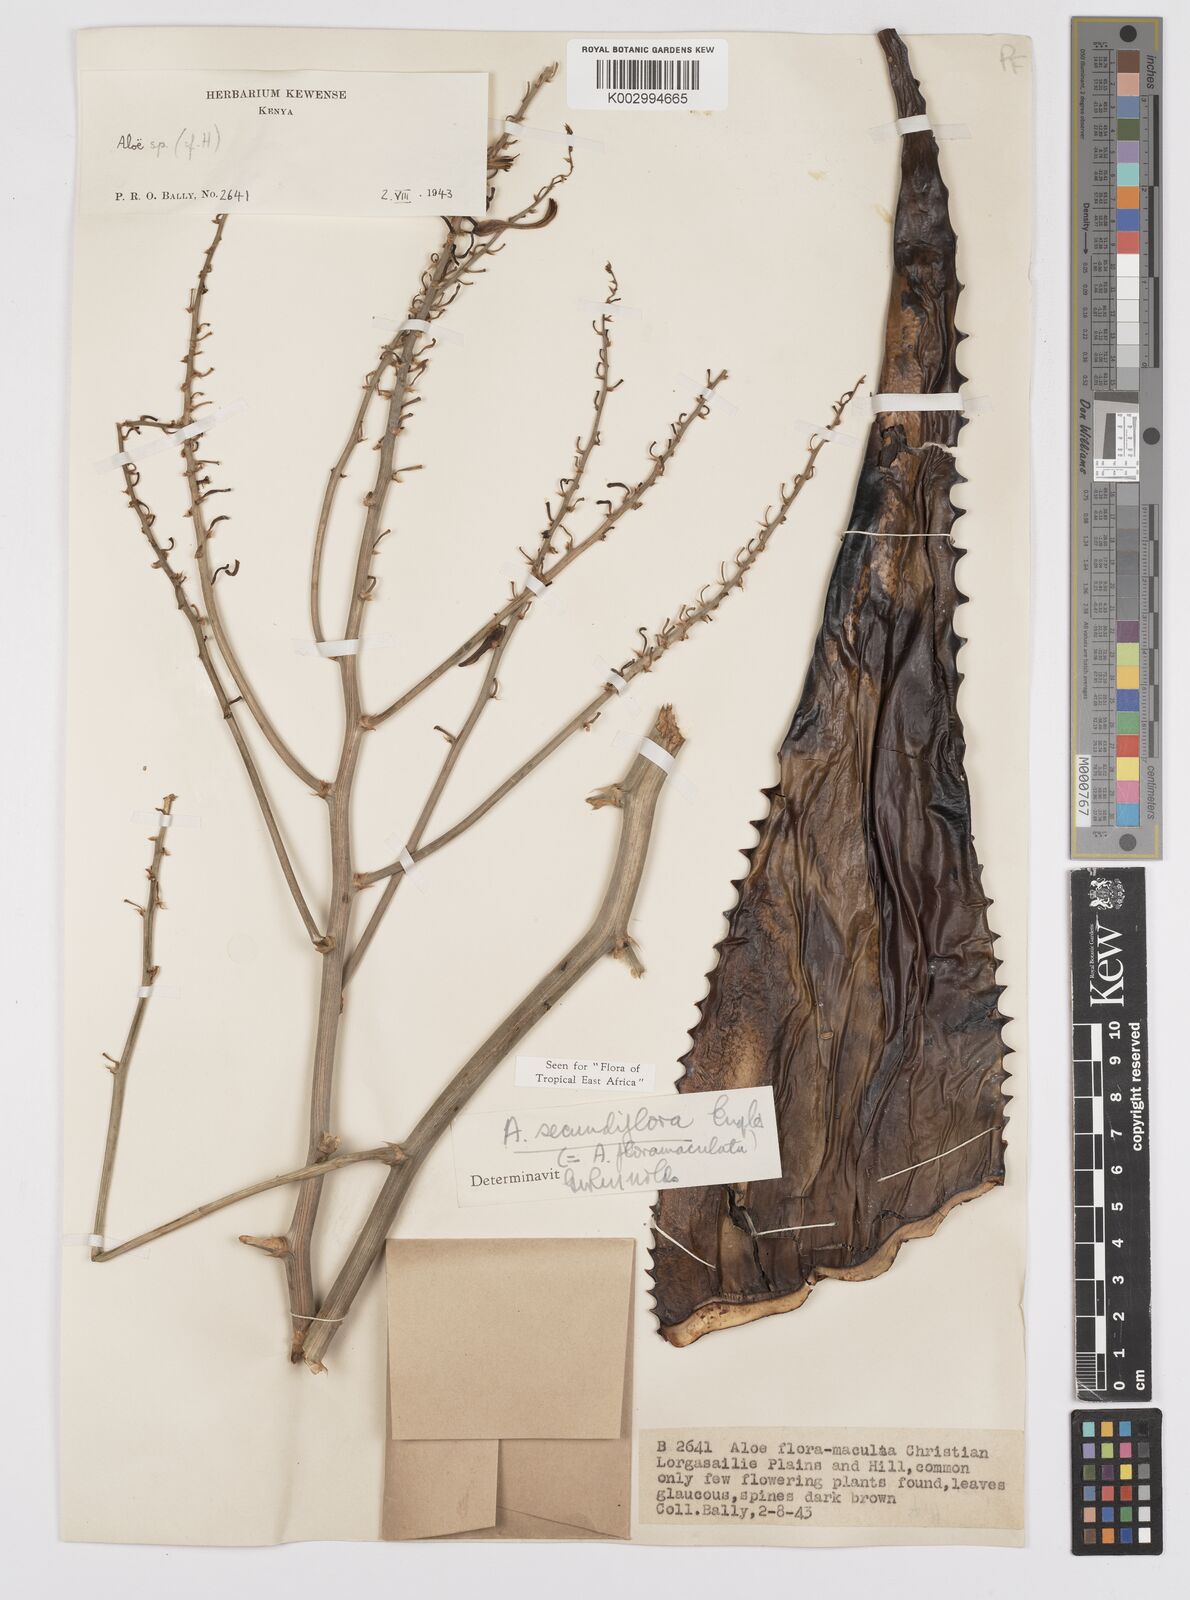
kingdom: Plantae
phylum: Tracheophyta
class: Liliopsida
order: Asparagales
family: Asphodelaceae
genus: Aloe
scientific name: Aloe
